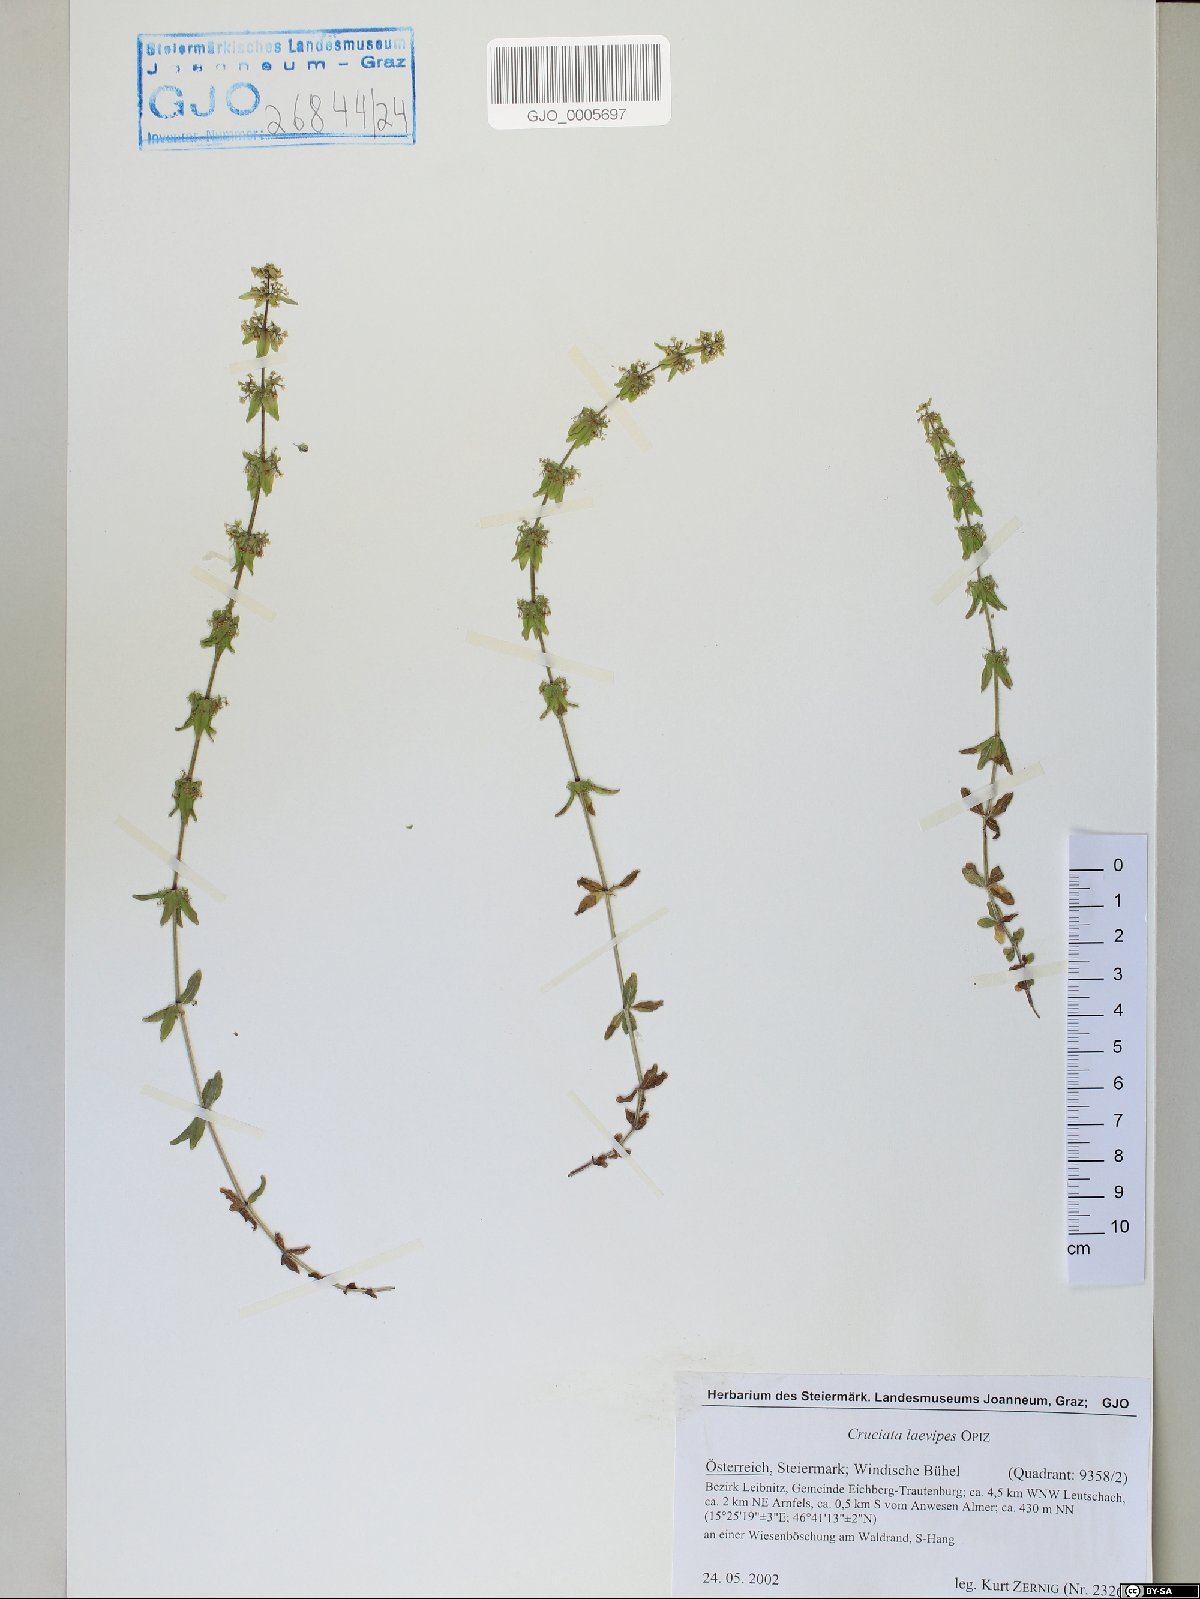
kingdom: Plantae
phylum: Tracheophyta
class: Magnoliopsida
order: Gentianales
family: Rubiaceae
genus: Cruciata
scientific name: Cruciata laevipes
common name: Crosswort
